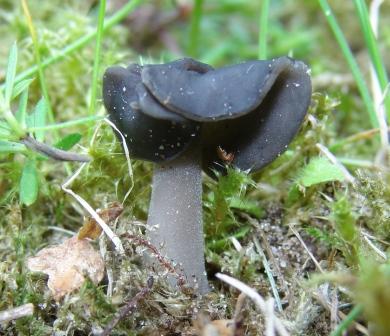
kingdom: Fungi
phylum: Ascomycota
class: Pezizomycetes
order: Pezizales
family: Helvellaceae
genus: Helvella
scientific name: Helvella atra
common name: sort foldhat
